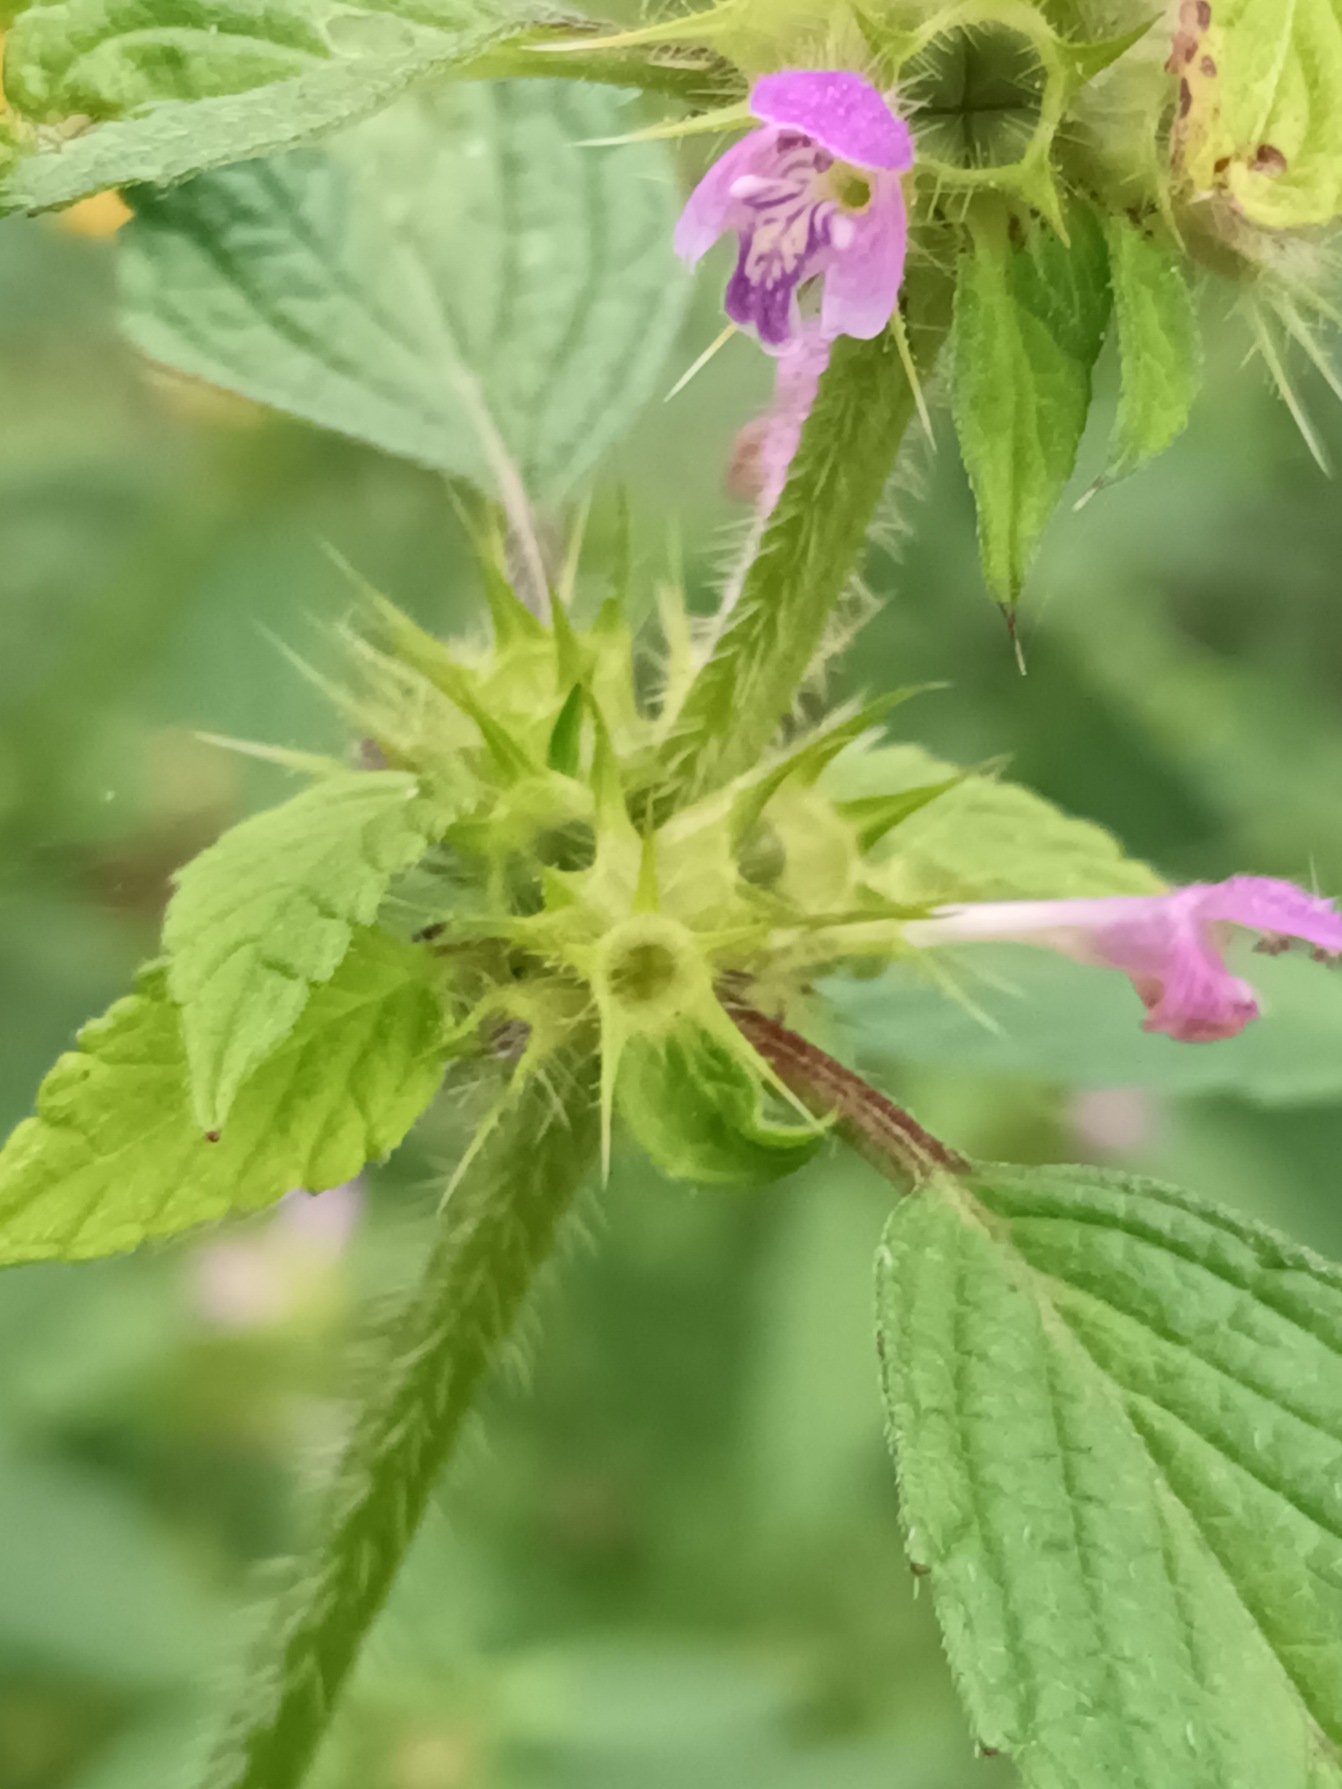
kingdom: Plantae
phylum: Tracheophyta
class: Magnoliopsida
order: Lamiales
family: Lamiaceae
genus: Galeopsis
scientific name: Galeopsis bifida
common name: Skov-hanekro
